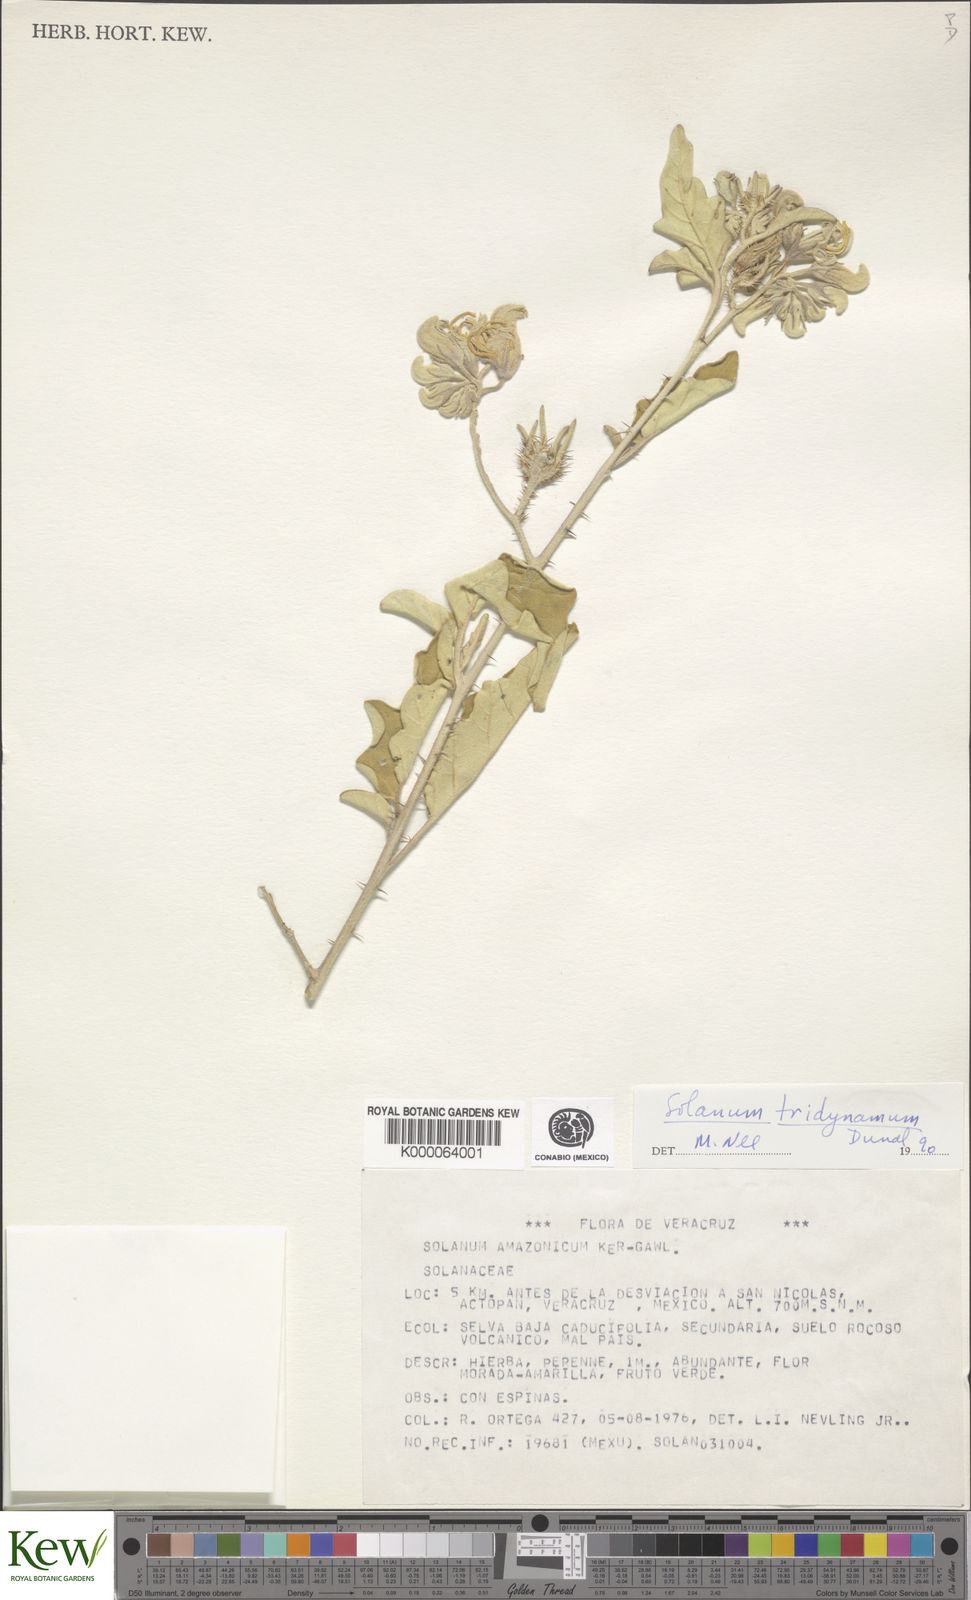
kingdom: Plantae
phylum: Tracheophyta
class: Magnoliopsida
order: Solanales
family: Solanaceae
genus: Solanum
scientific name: Solanum houstonii
